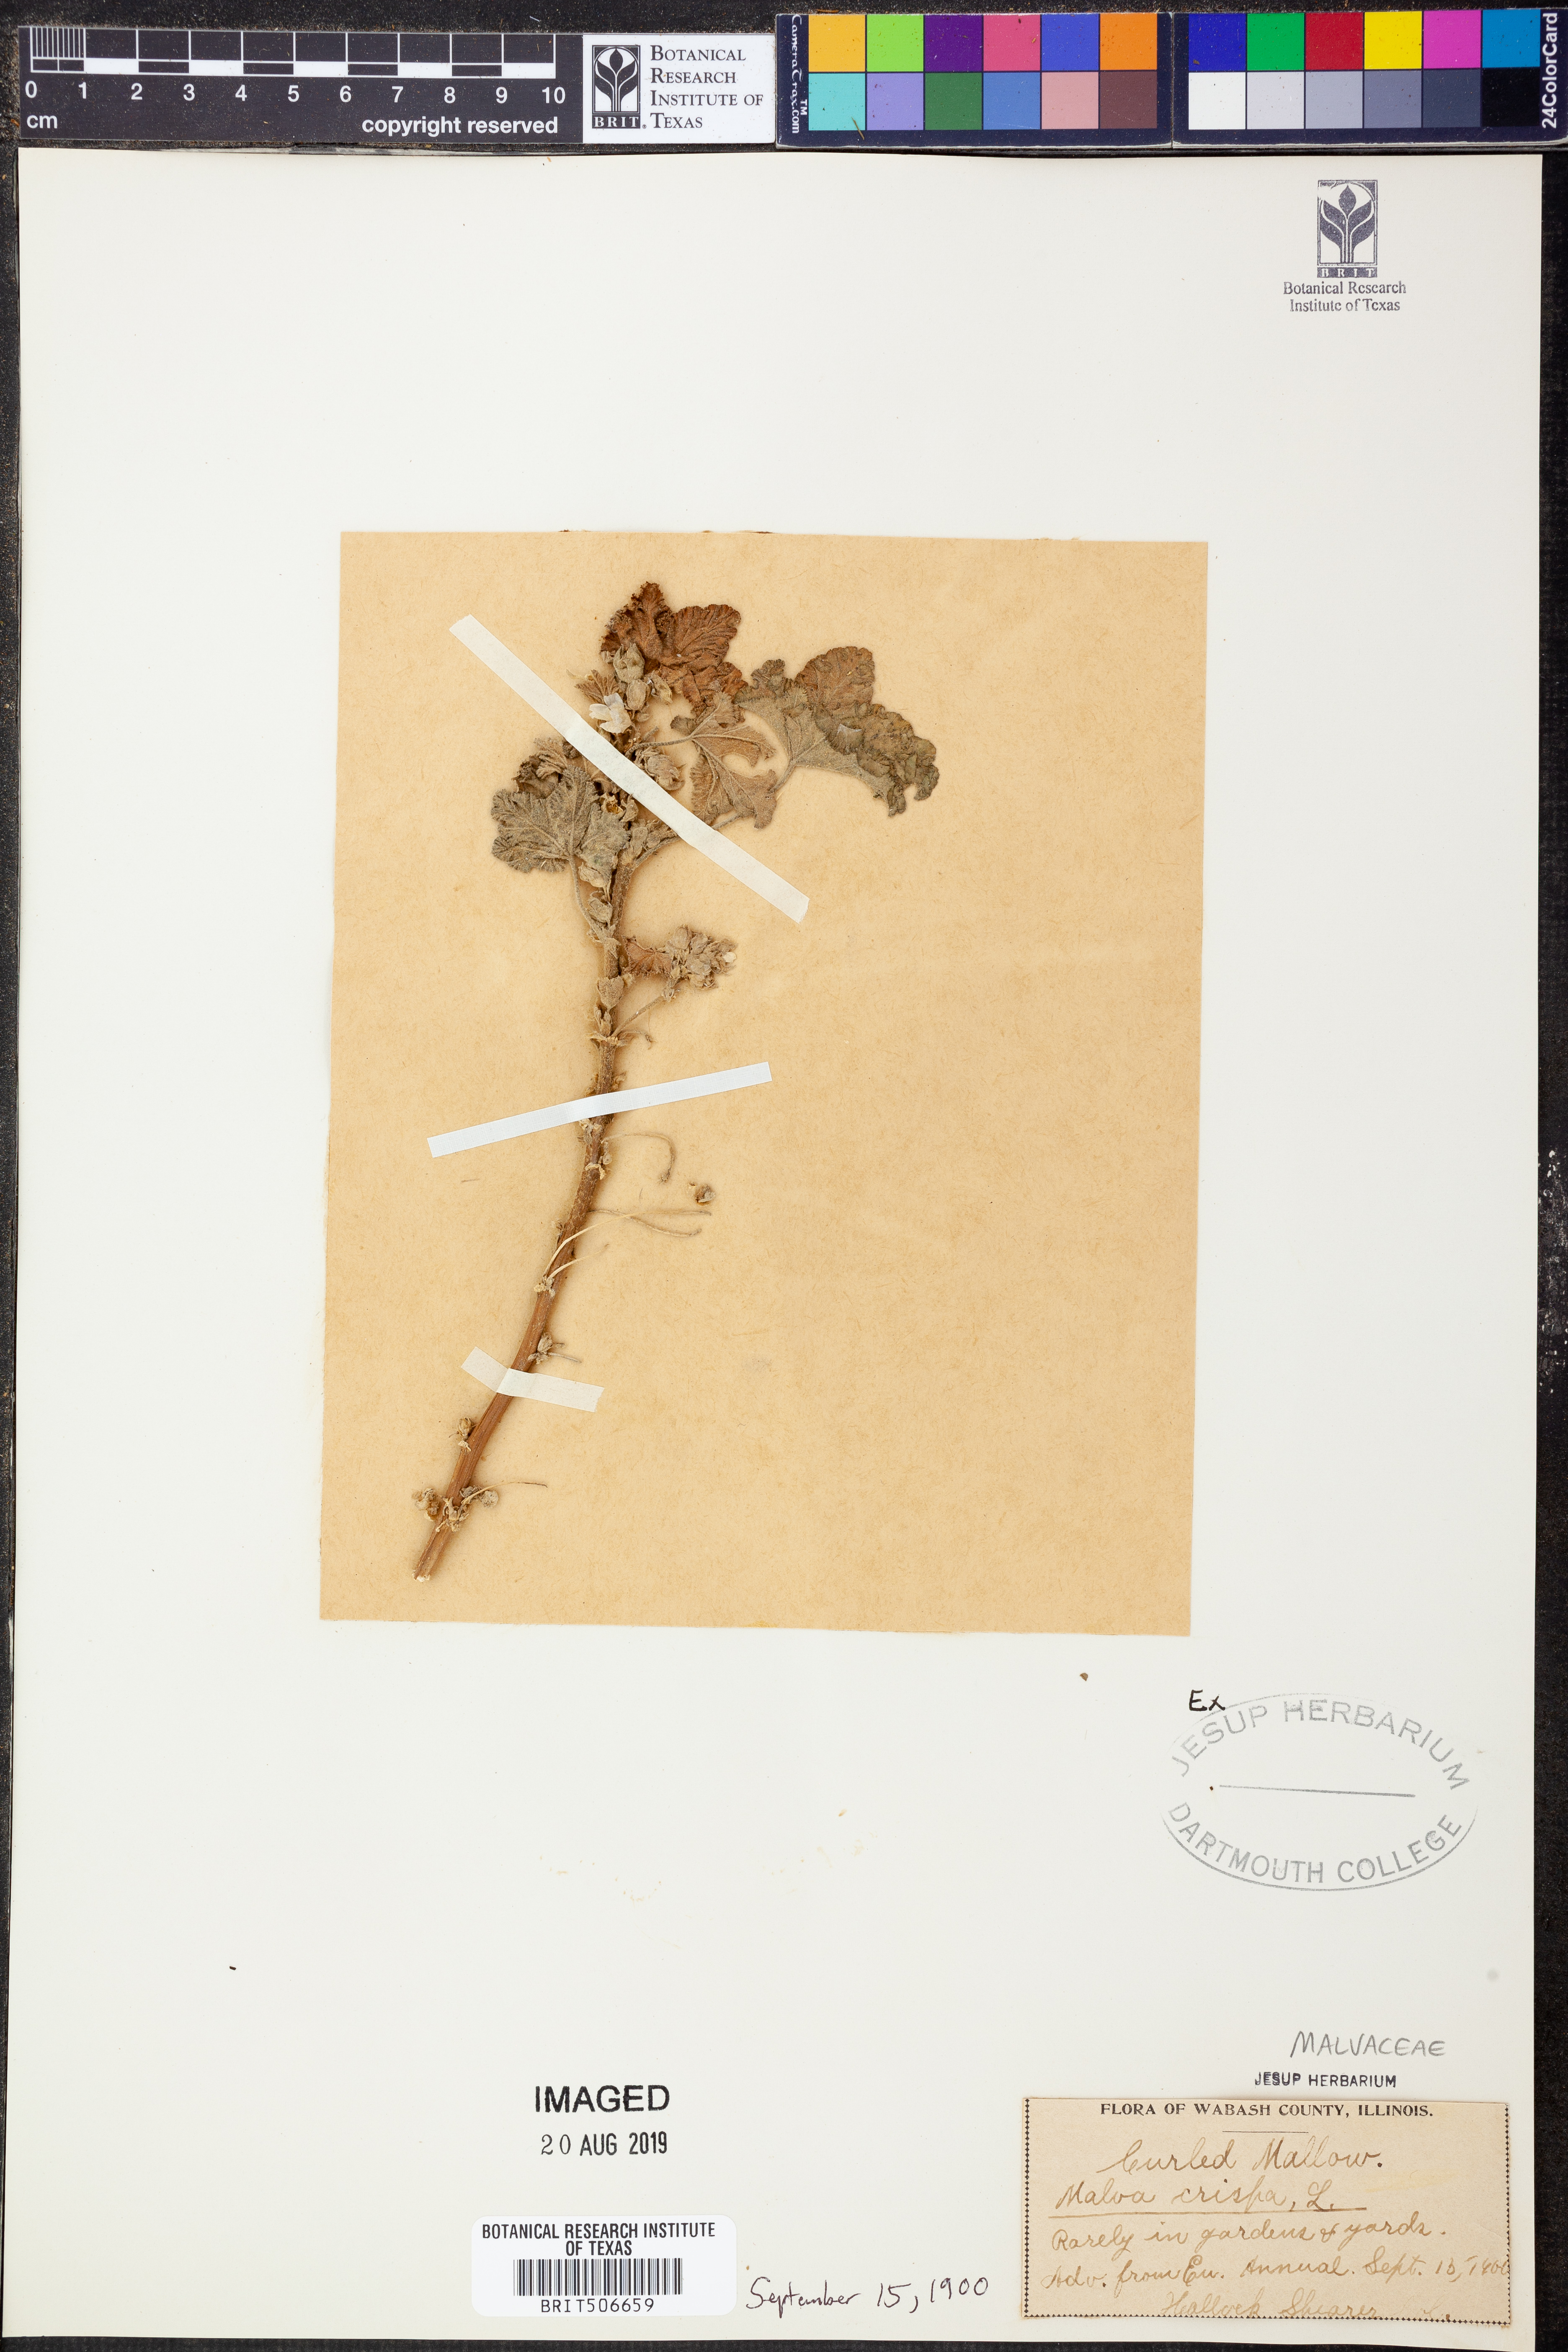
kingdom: Plantae
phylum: Tracheophyta
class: Magnoliopsida
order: Malvales
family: Malvaceae
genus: Malva
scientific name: Malva verticillata
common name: Chinese mallow
